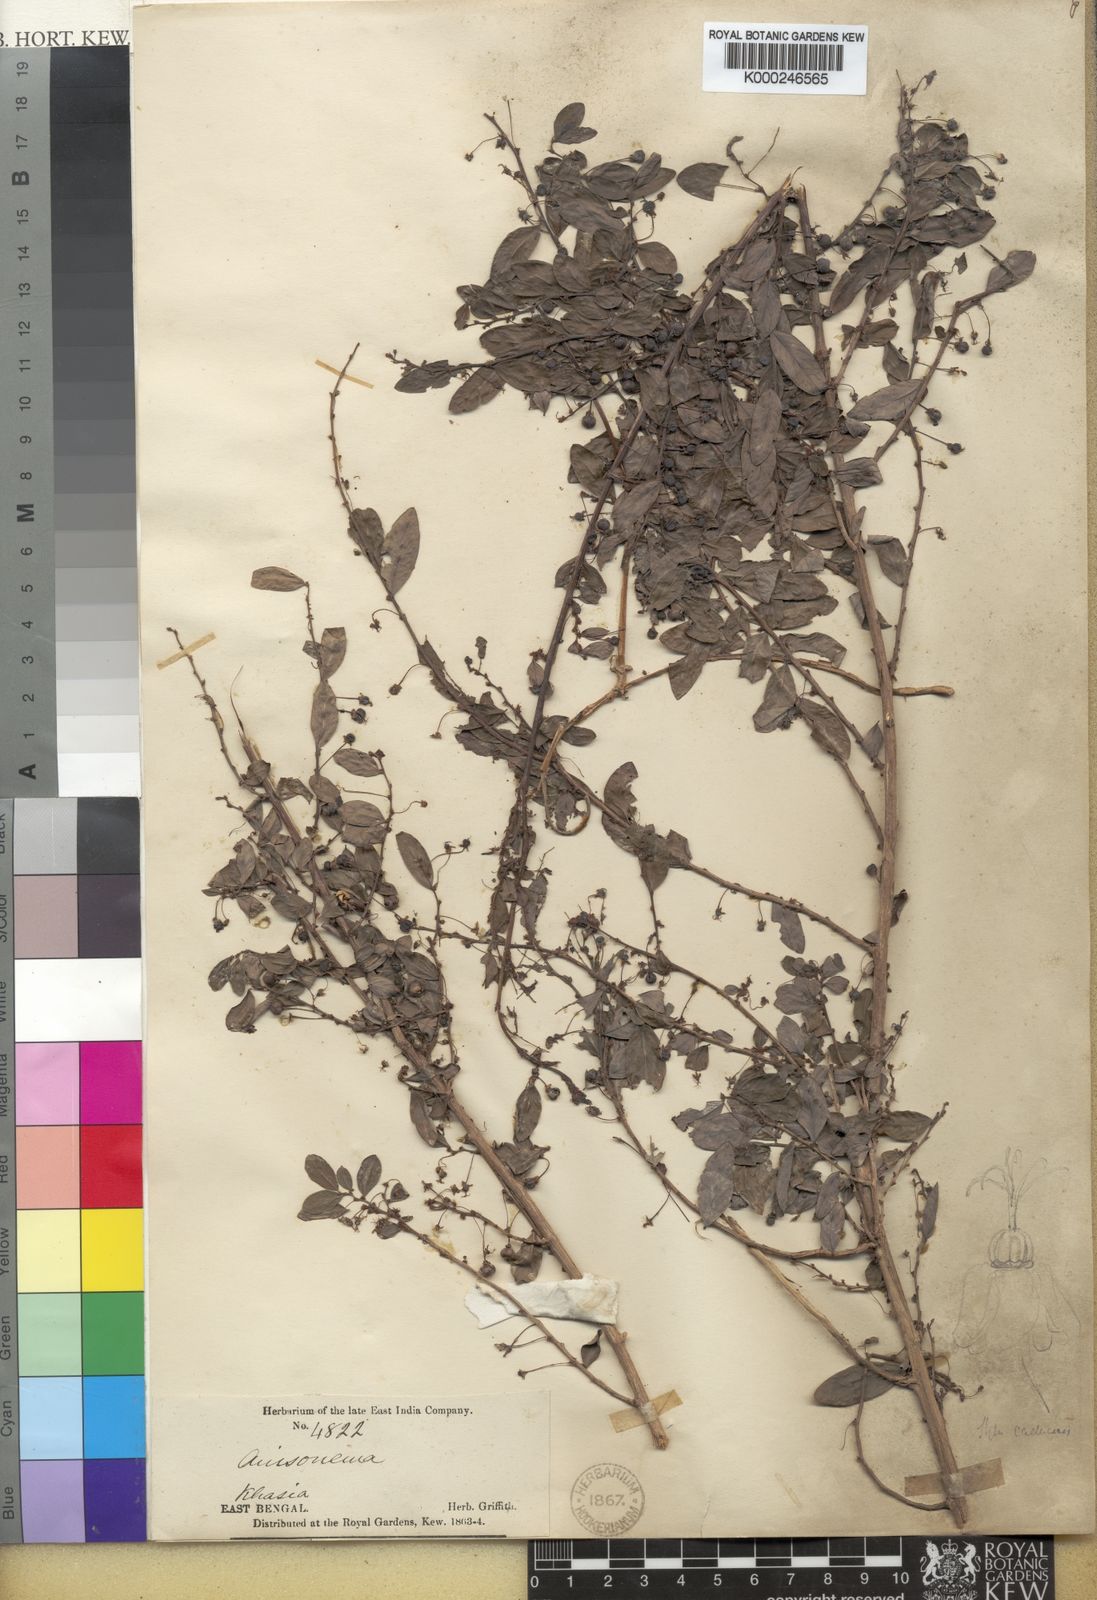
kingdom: Plantae
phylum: Tracheophyta
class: Magnoliopsida
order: Malpighiales
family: Phyllanthaceae
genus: Phyllanthus
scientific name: Phyllanthus stylosus
